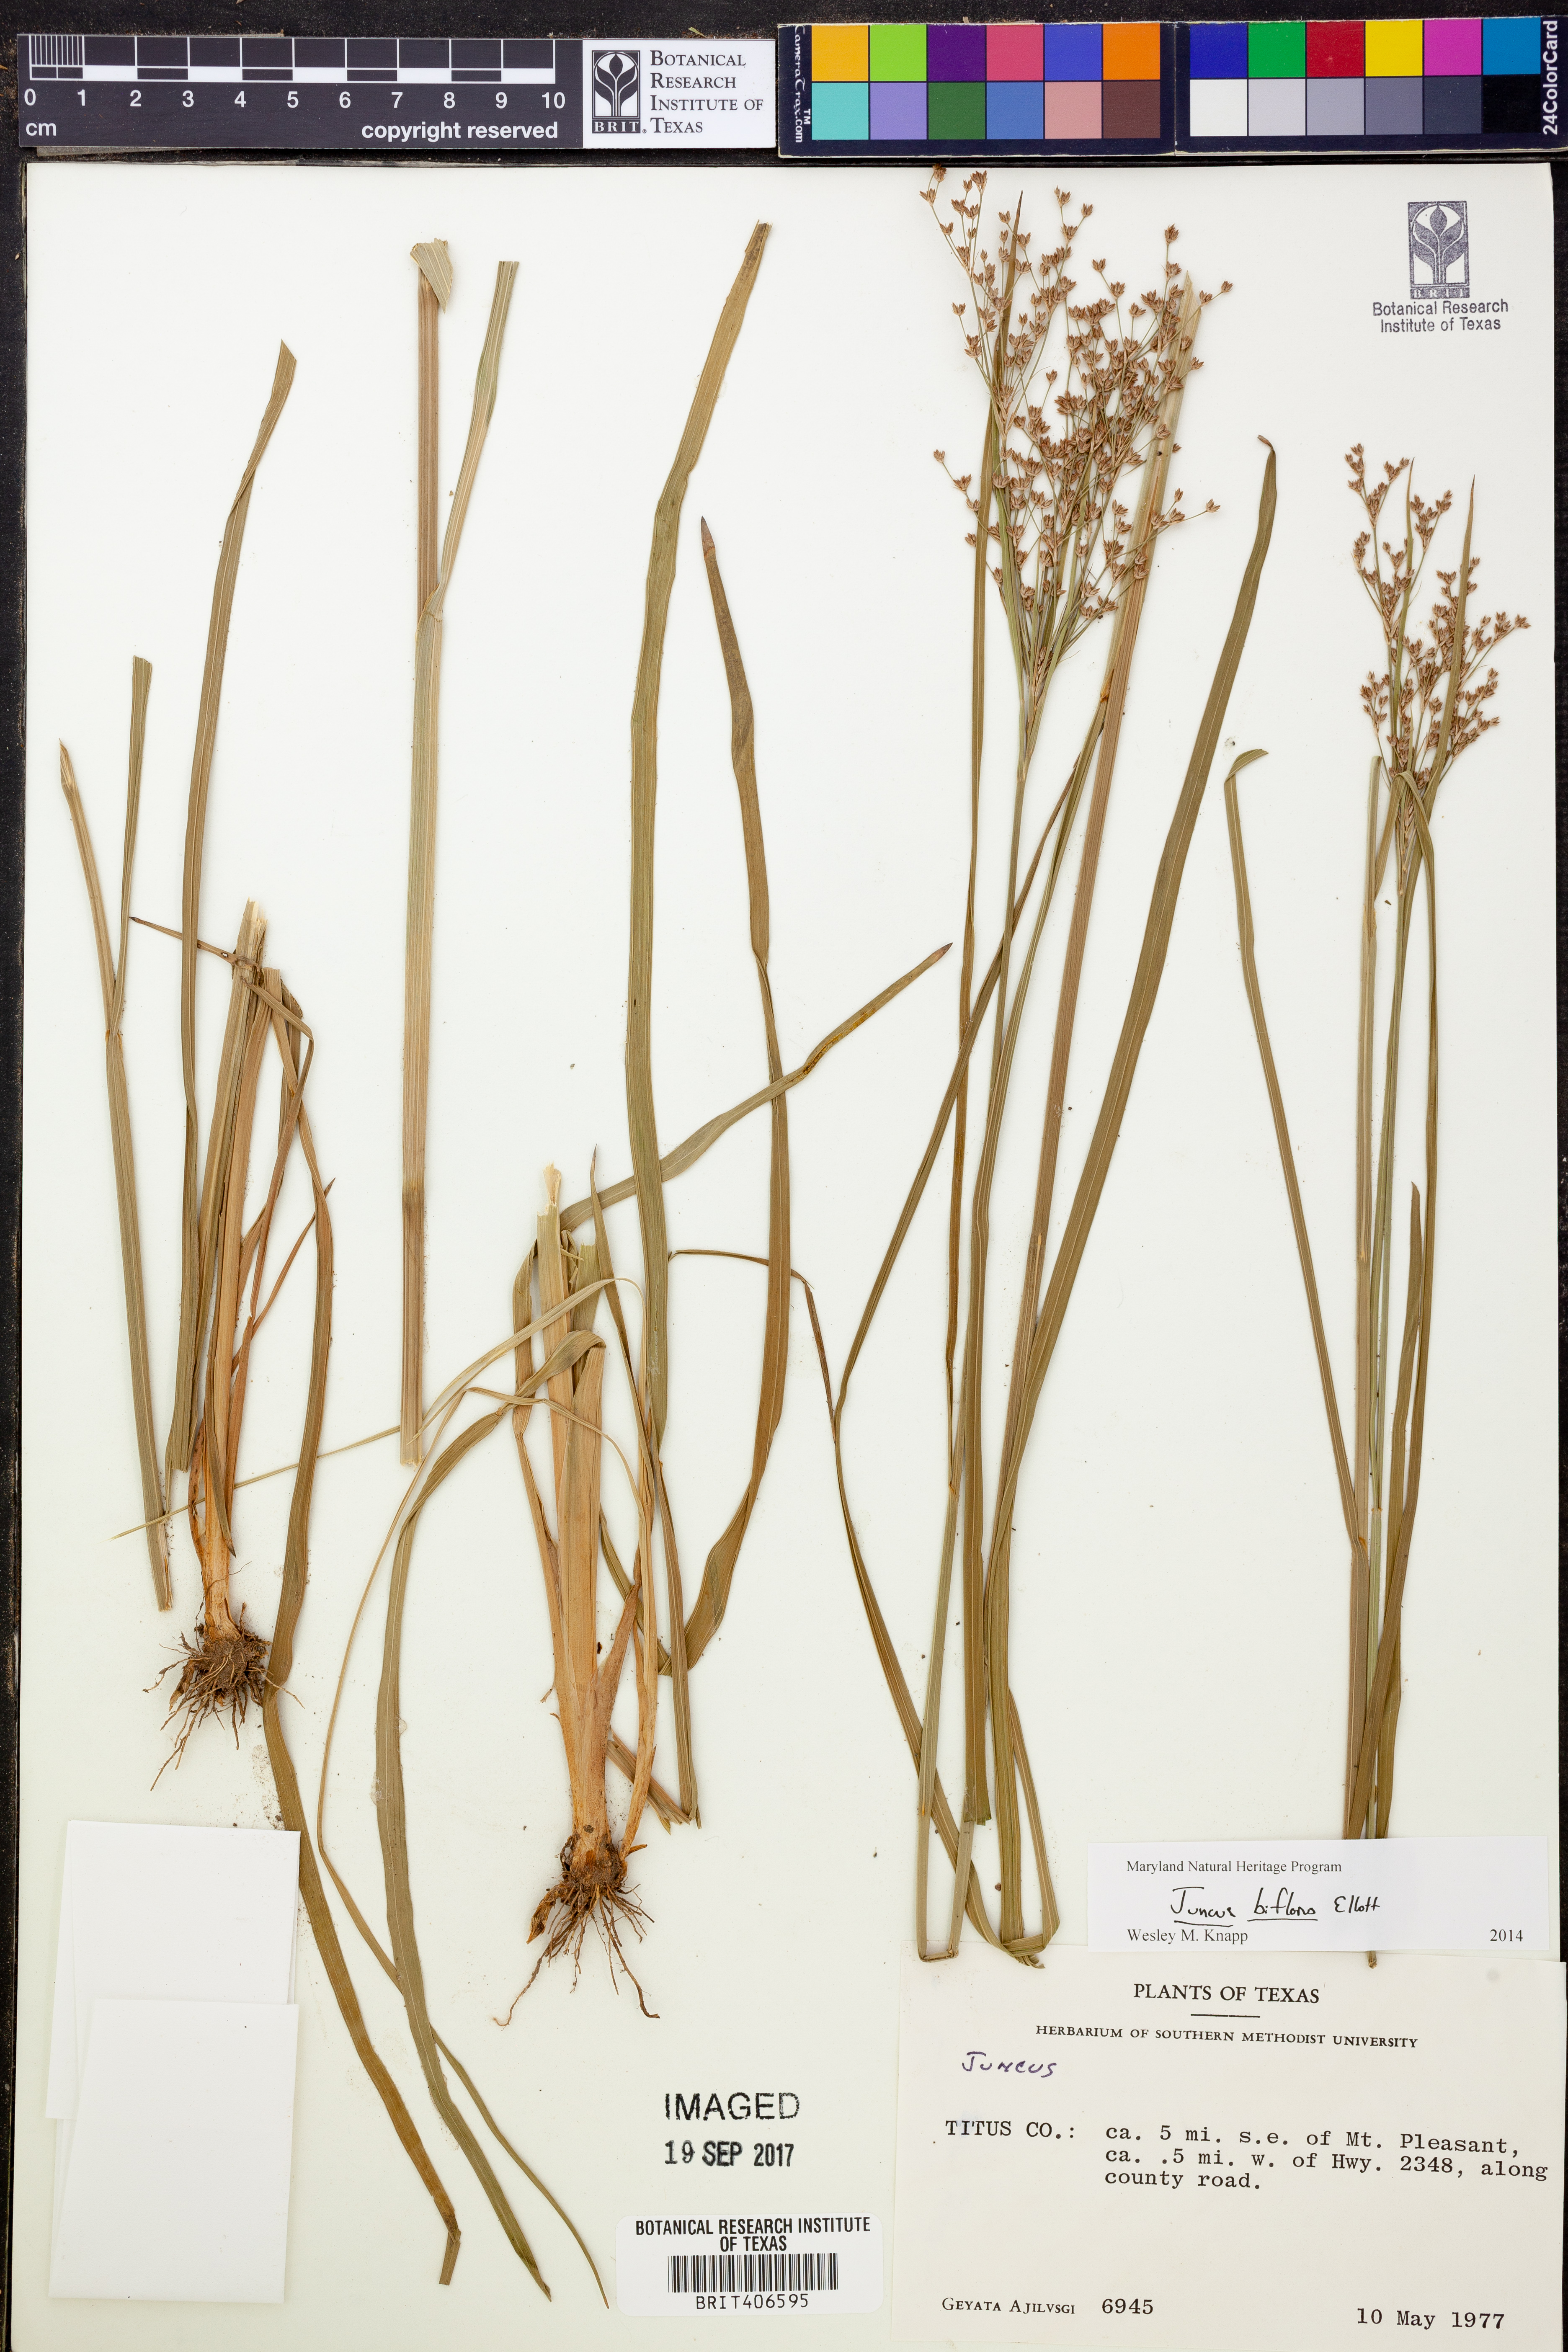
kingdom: Plantae
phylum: Tracheophyta
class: Liliopsida
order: Poales
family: Juncaceae
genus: Juncus
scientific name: Juncus biflorus
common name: Two-flowered rush
